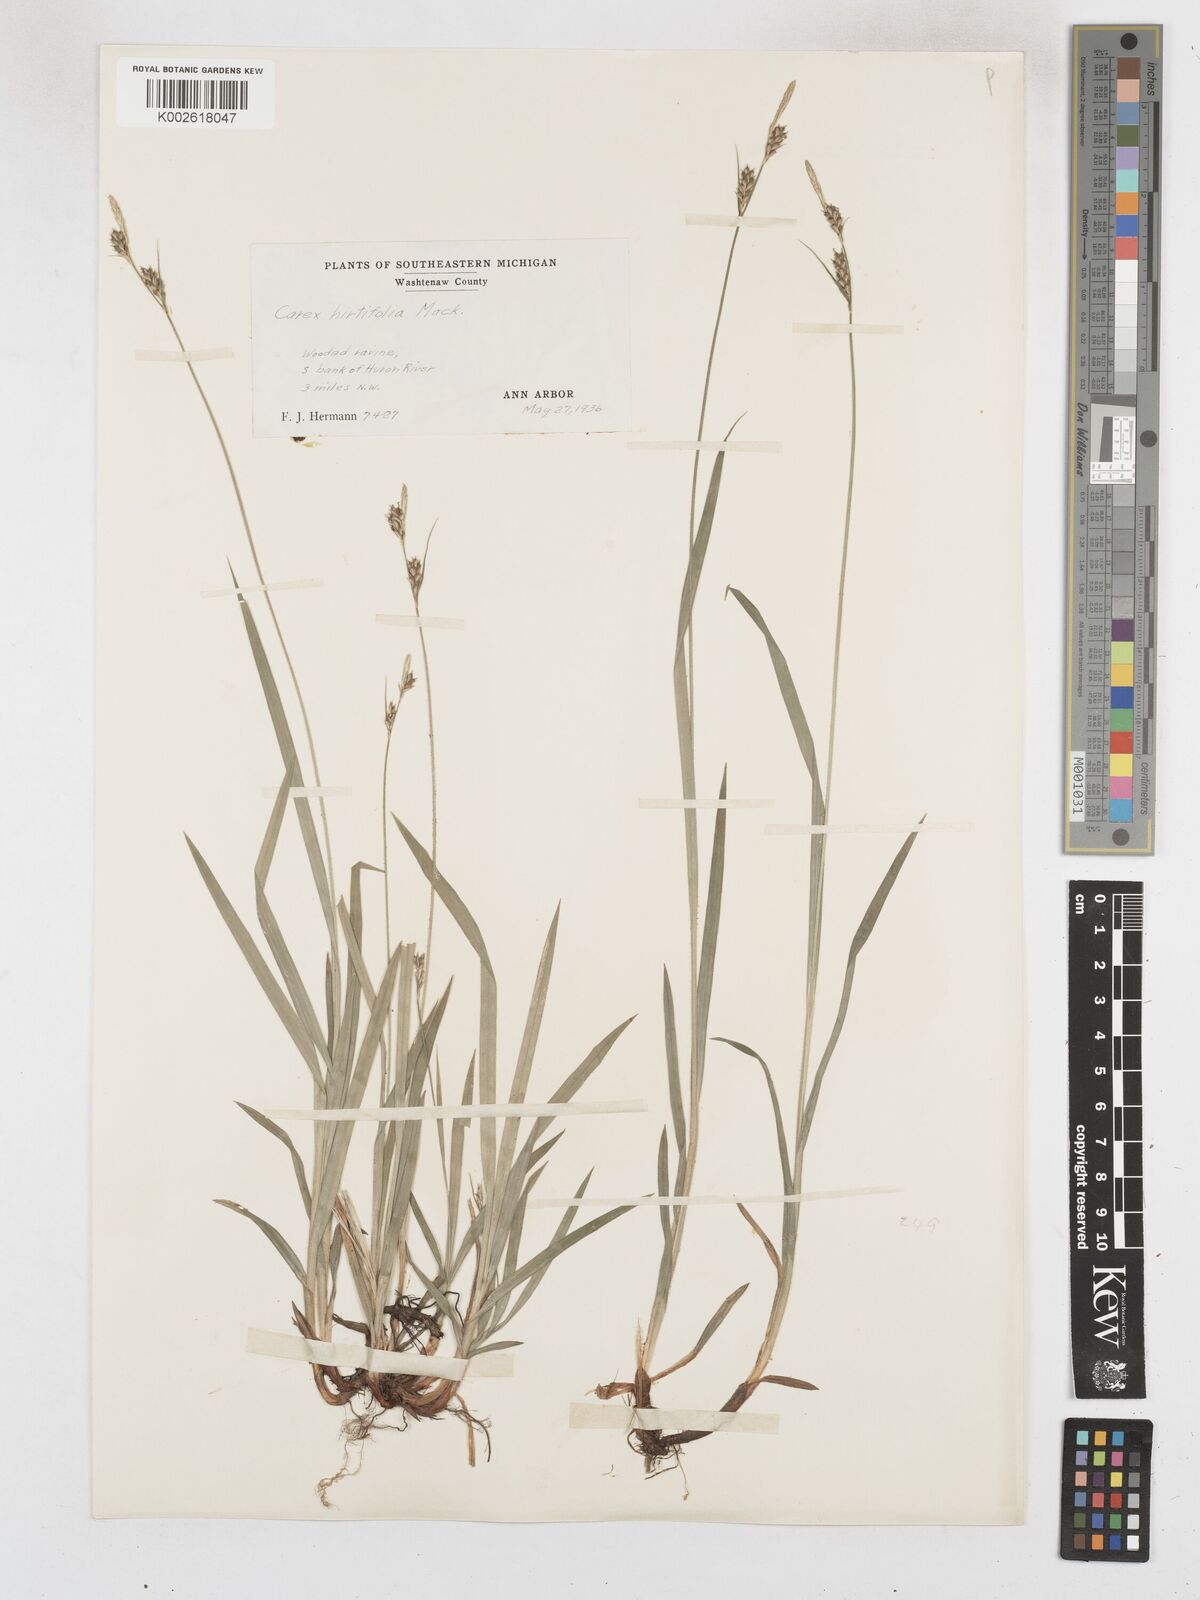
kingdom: Plantae
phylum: Tracheophyta
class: Liliopsida
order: Poales
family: Cyperaceae
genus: Carex
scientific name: Carex hirtifolia
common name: Hairy sedge
